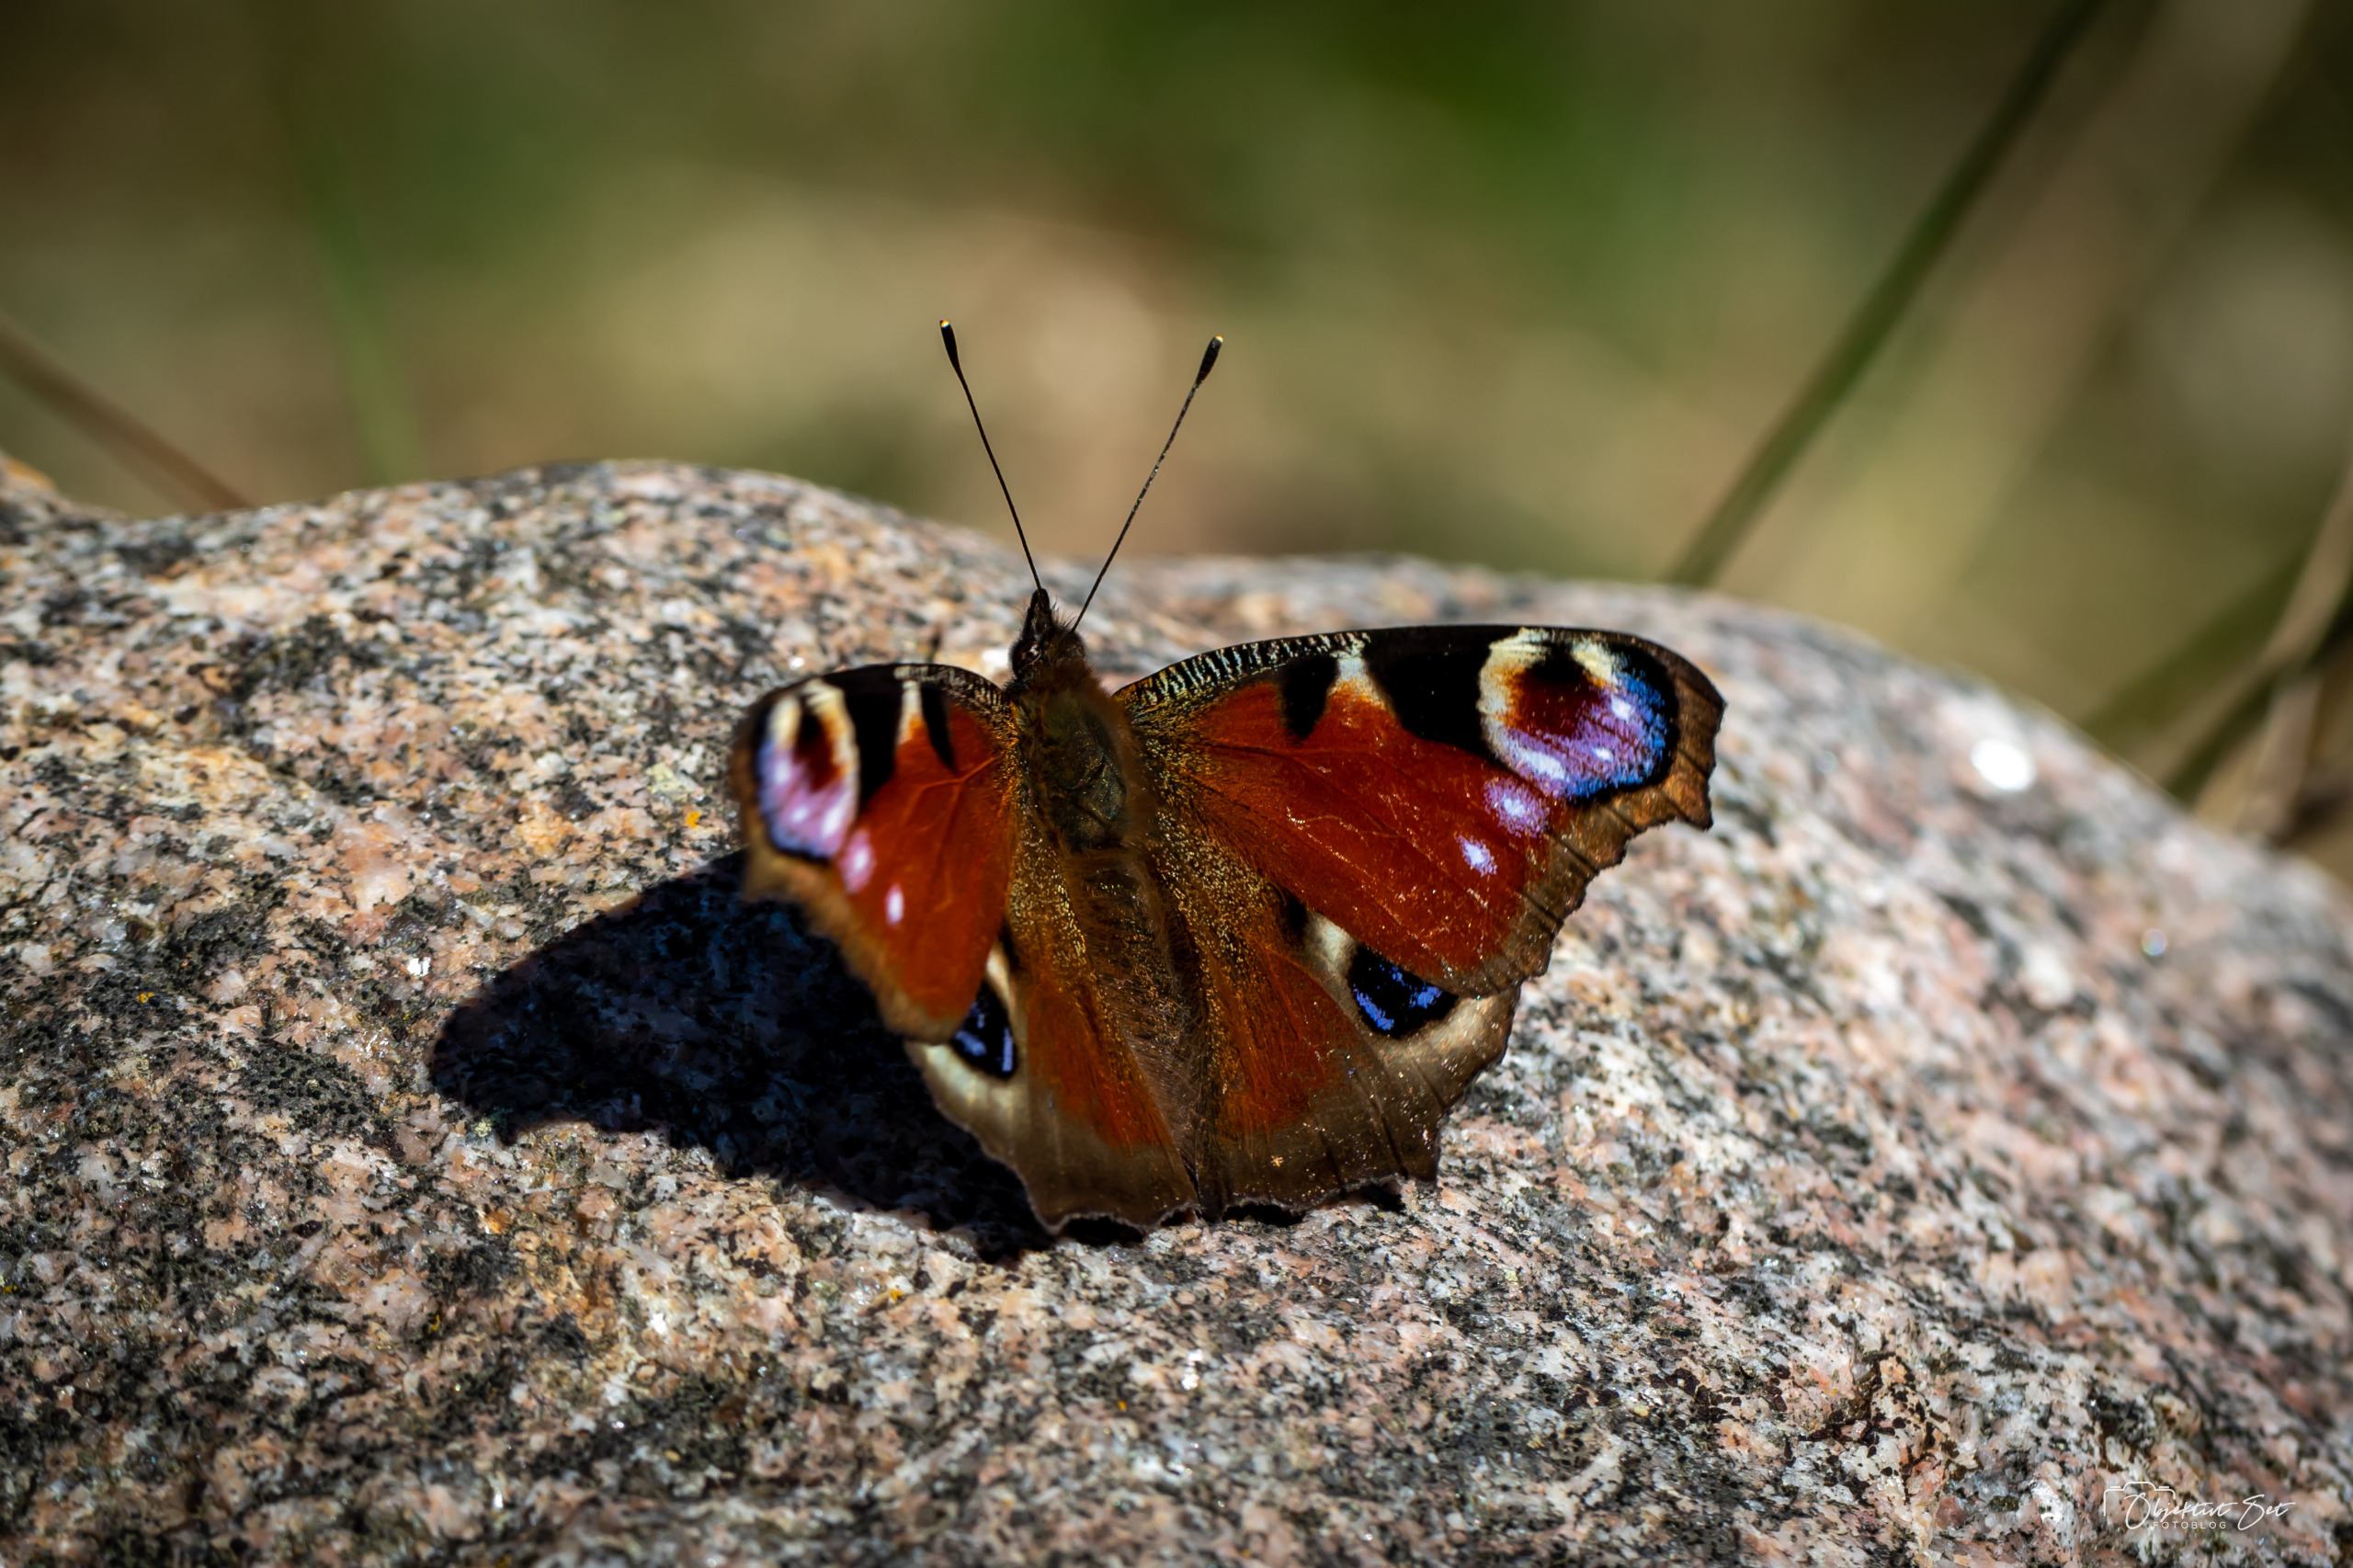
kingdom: Animalia
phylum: Arthropoda
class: Insecta
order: Lepidoptera
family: Nymphalidae
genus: Aglais
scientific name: Aglais io
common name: Dagpåfugleøje
